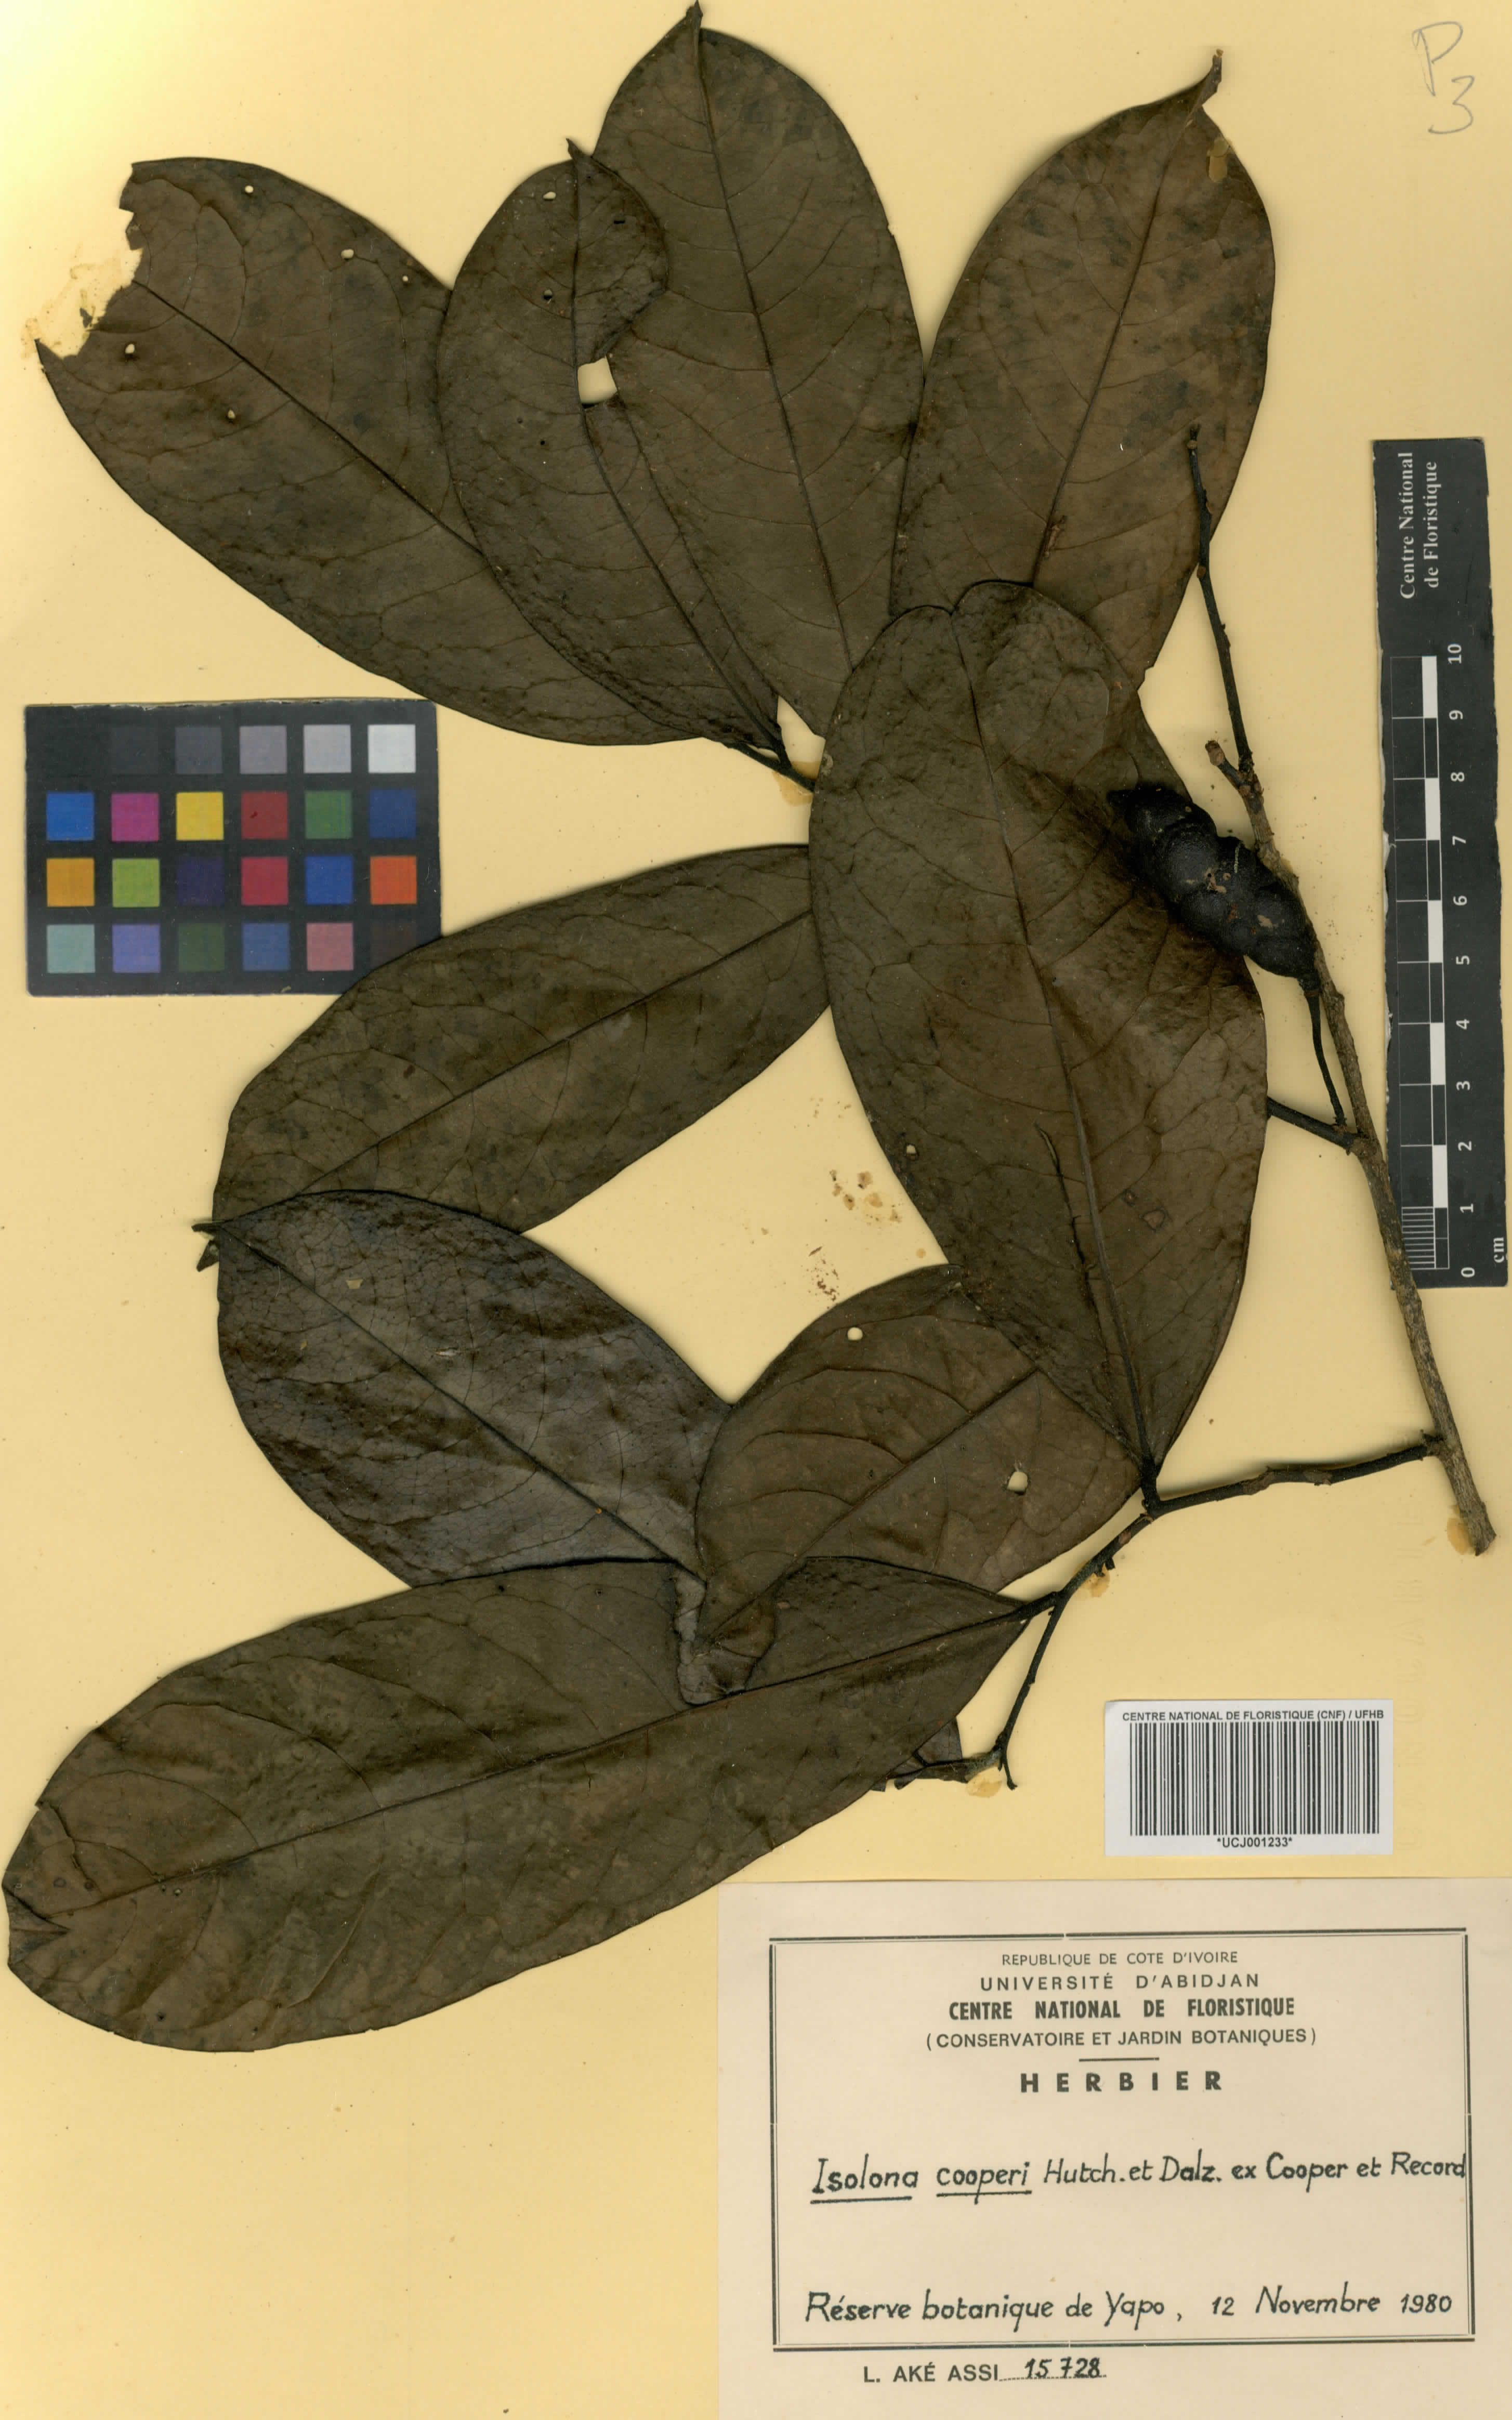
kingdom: Plantae
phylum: Tracheophyta
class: Magnoliopsida
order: Magnoliales
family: Annonaceae
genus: Isolona
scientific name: Isolona cooperi
